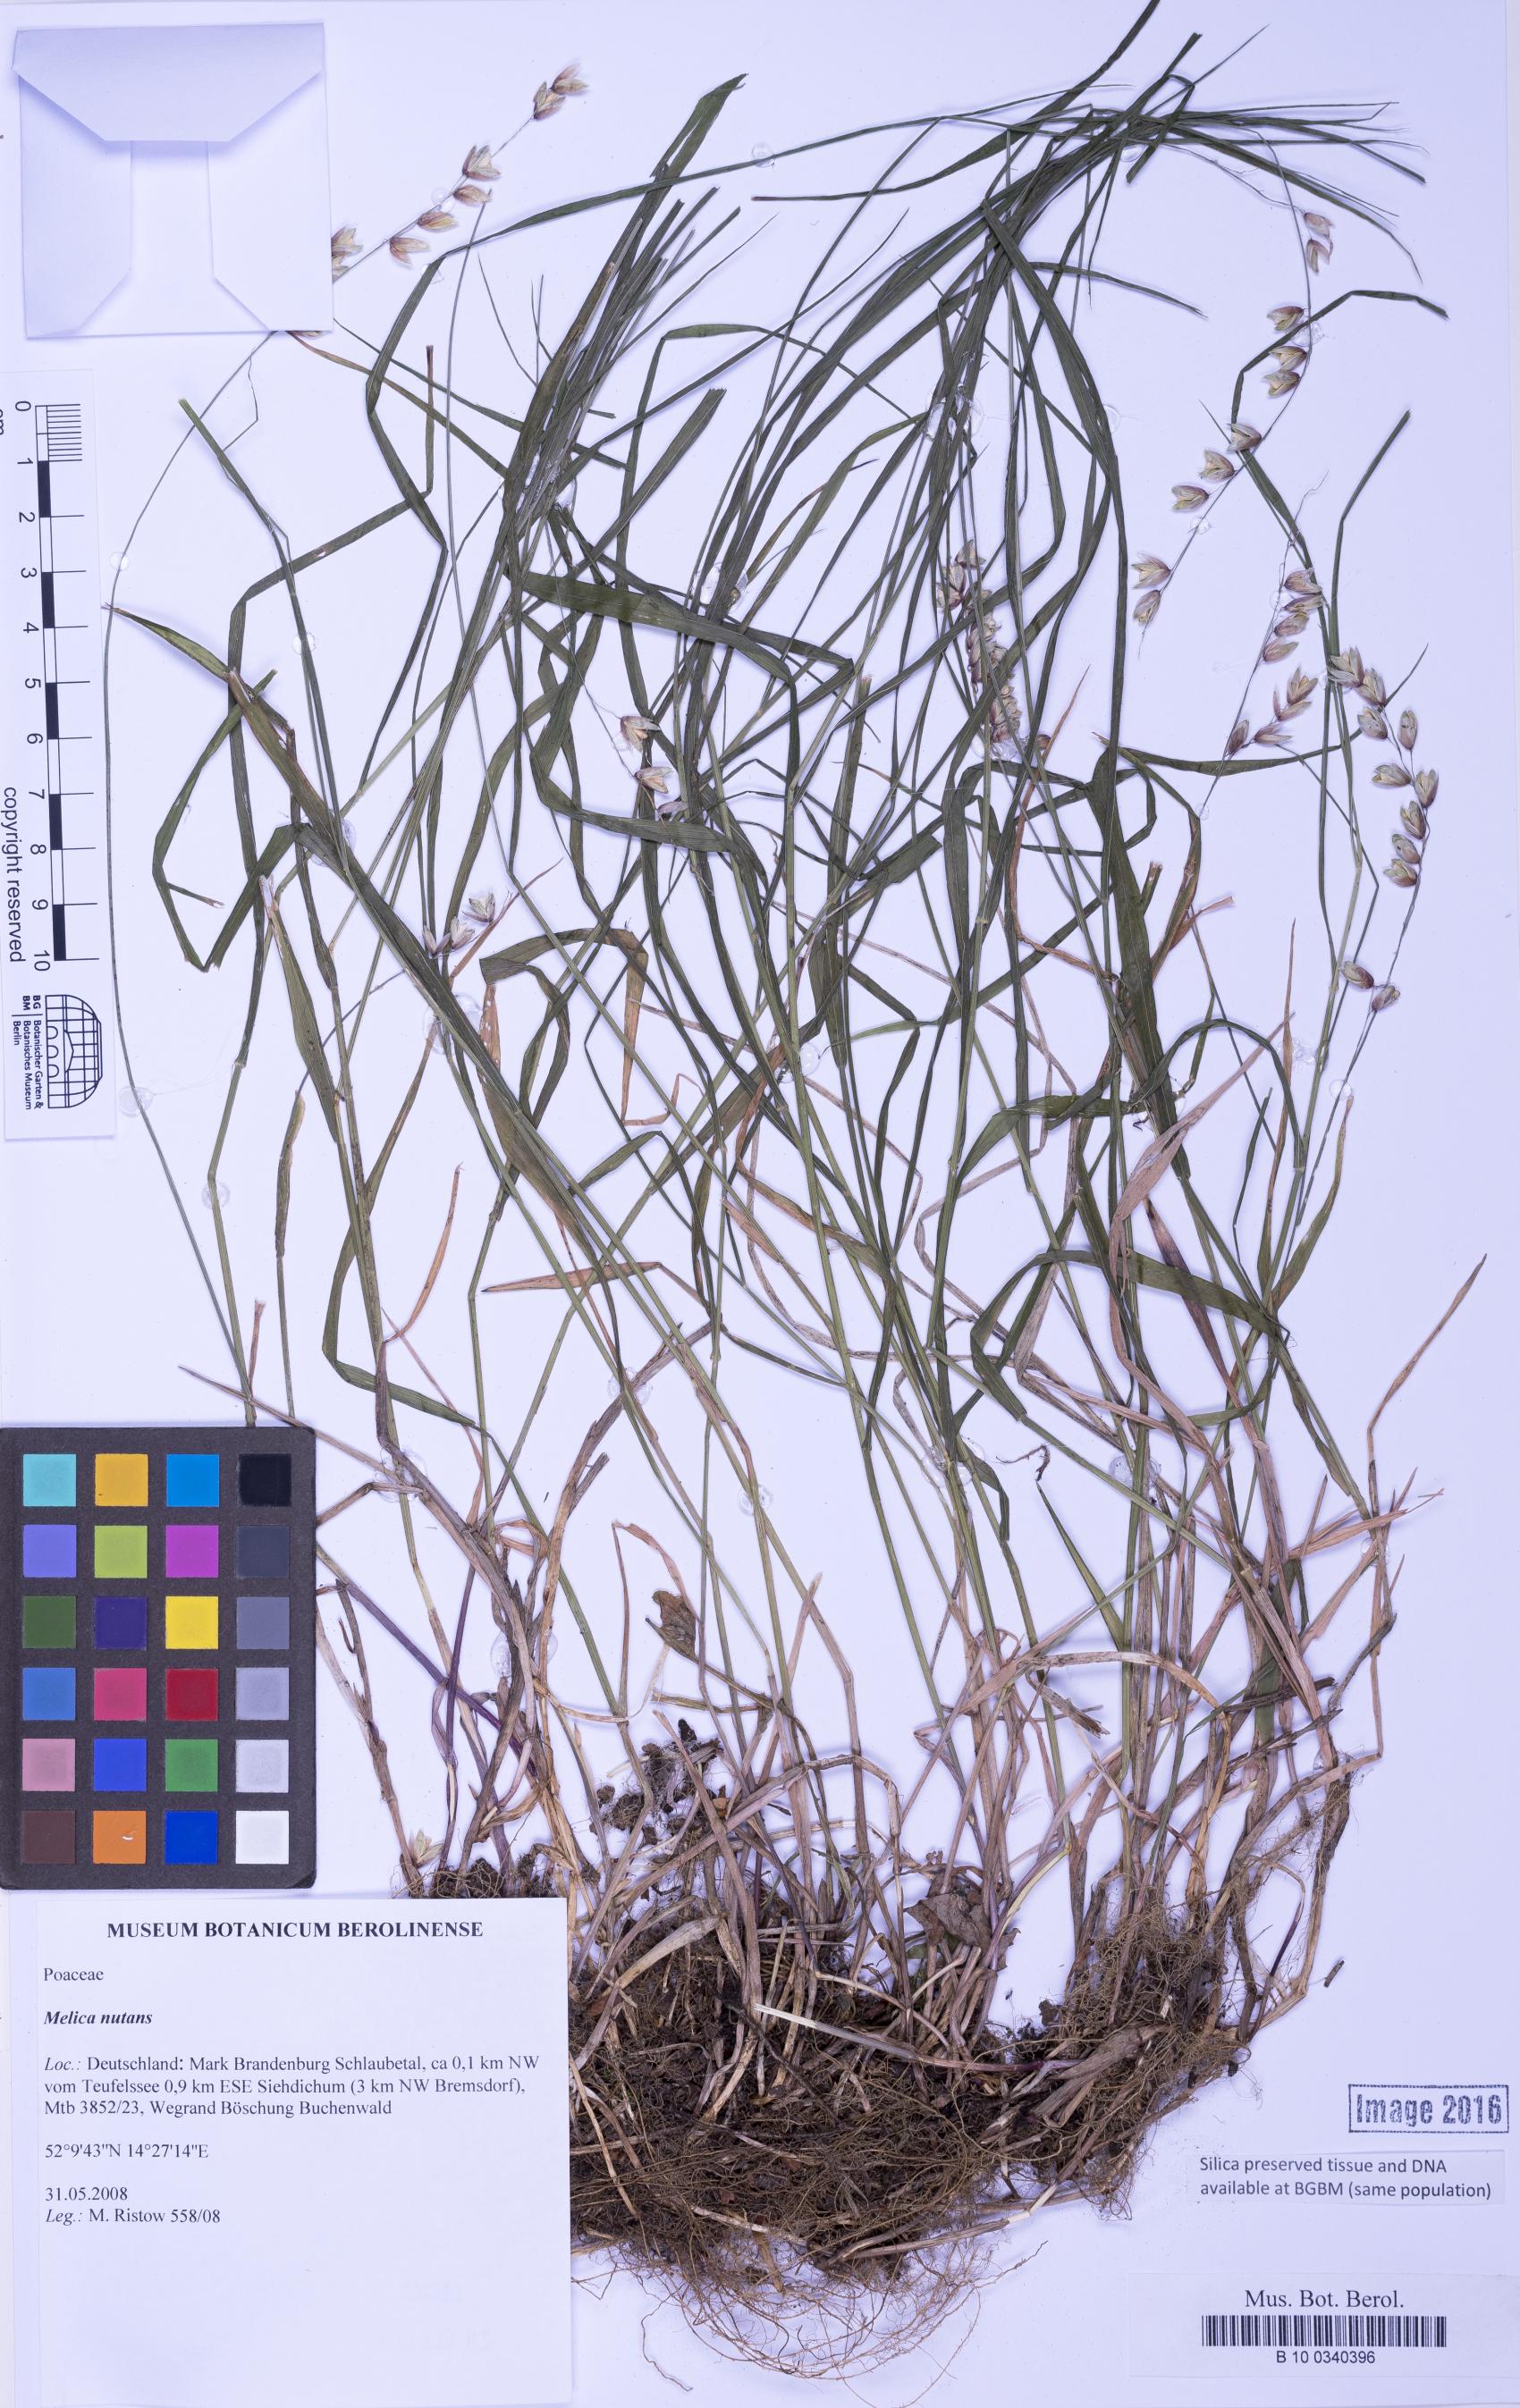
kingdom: Plantae
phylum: Tracheophyta
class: Liliopsida
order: Poales
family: Poaceae
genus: Melica
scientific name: Melica nutans
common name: Mountain melick
